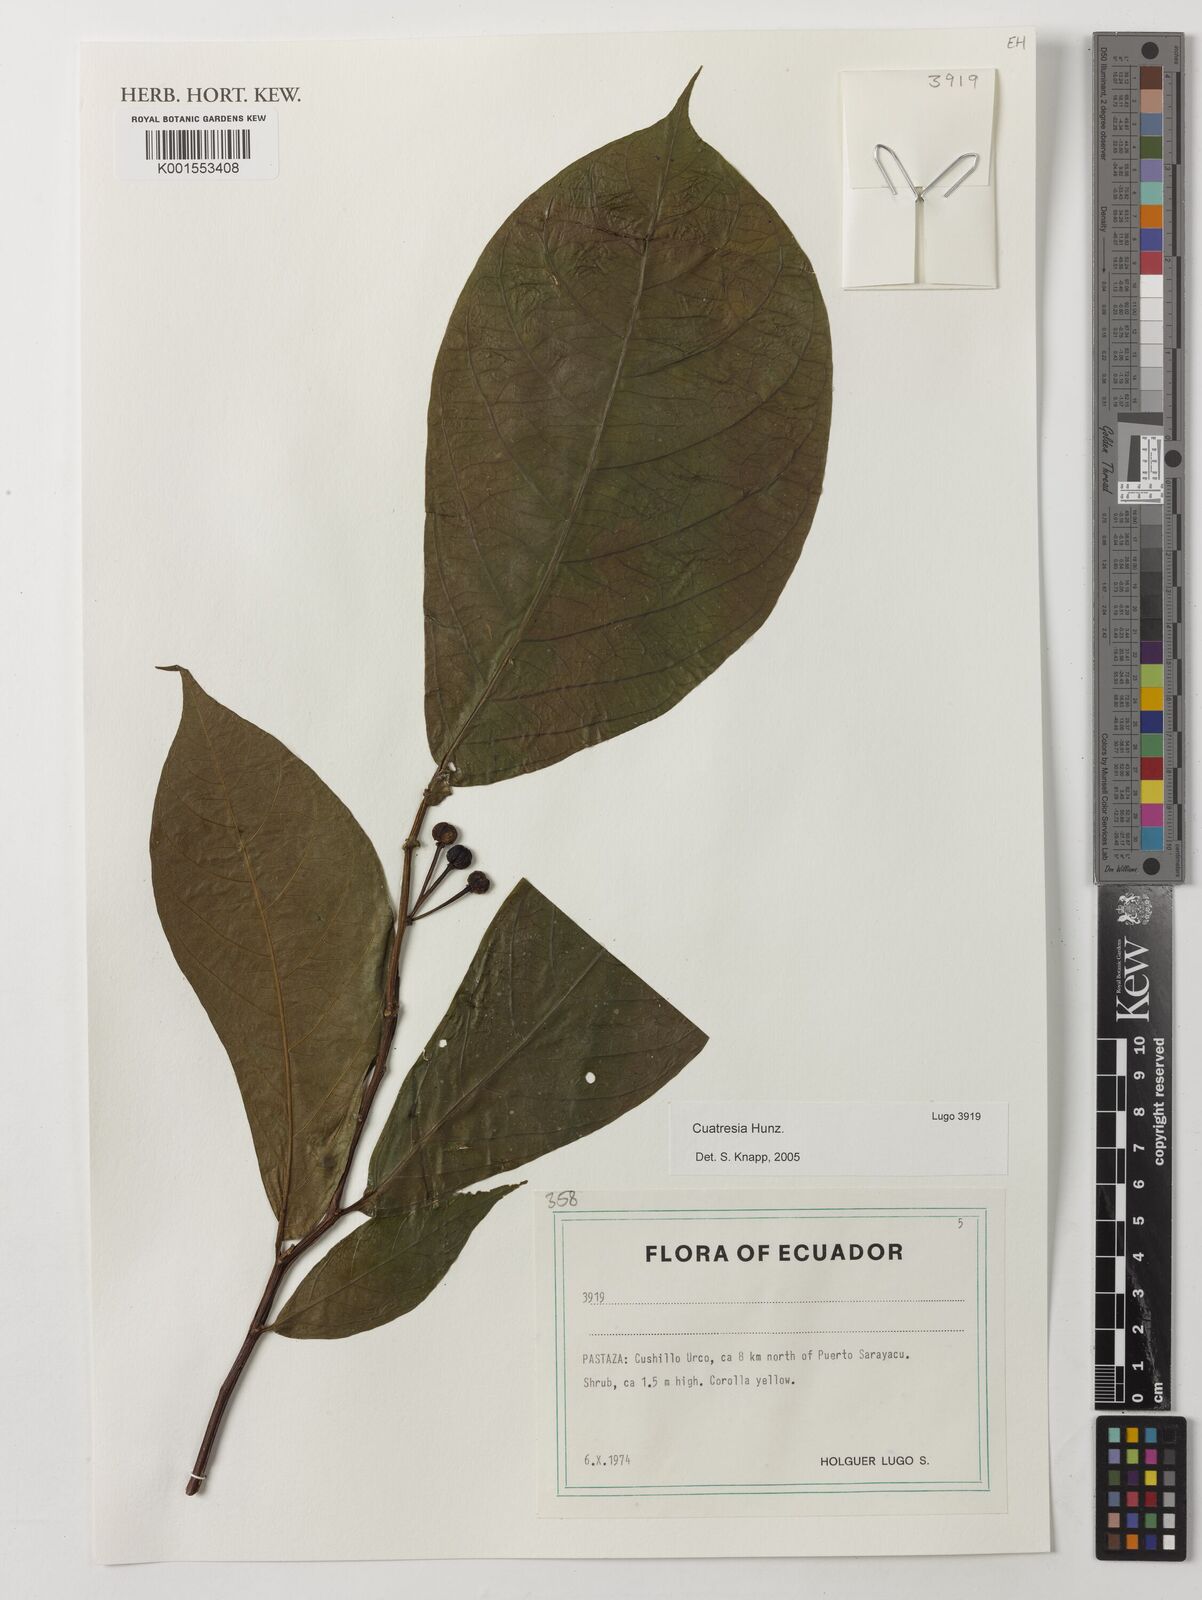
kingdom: Plantae
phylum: Tracheophyta
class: Magnoliopsida
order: Solanales
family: Solanaceae
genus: Cuatresia
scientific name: Cuatresia
